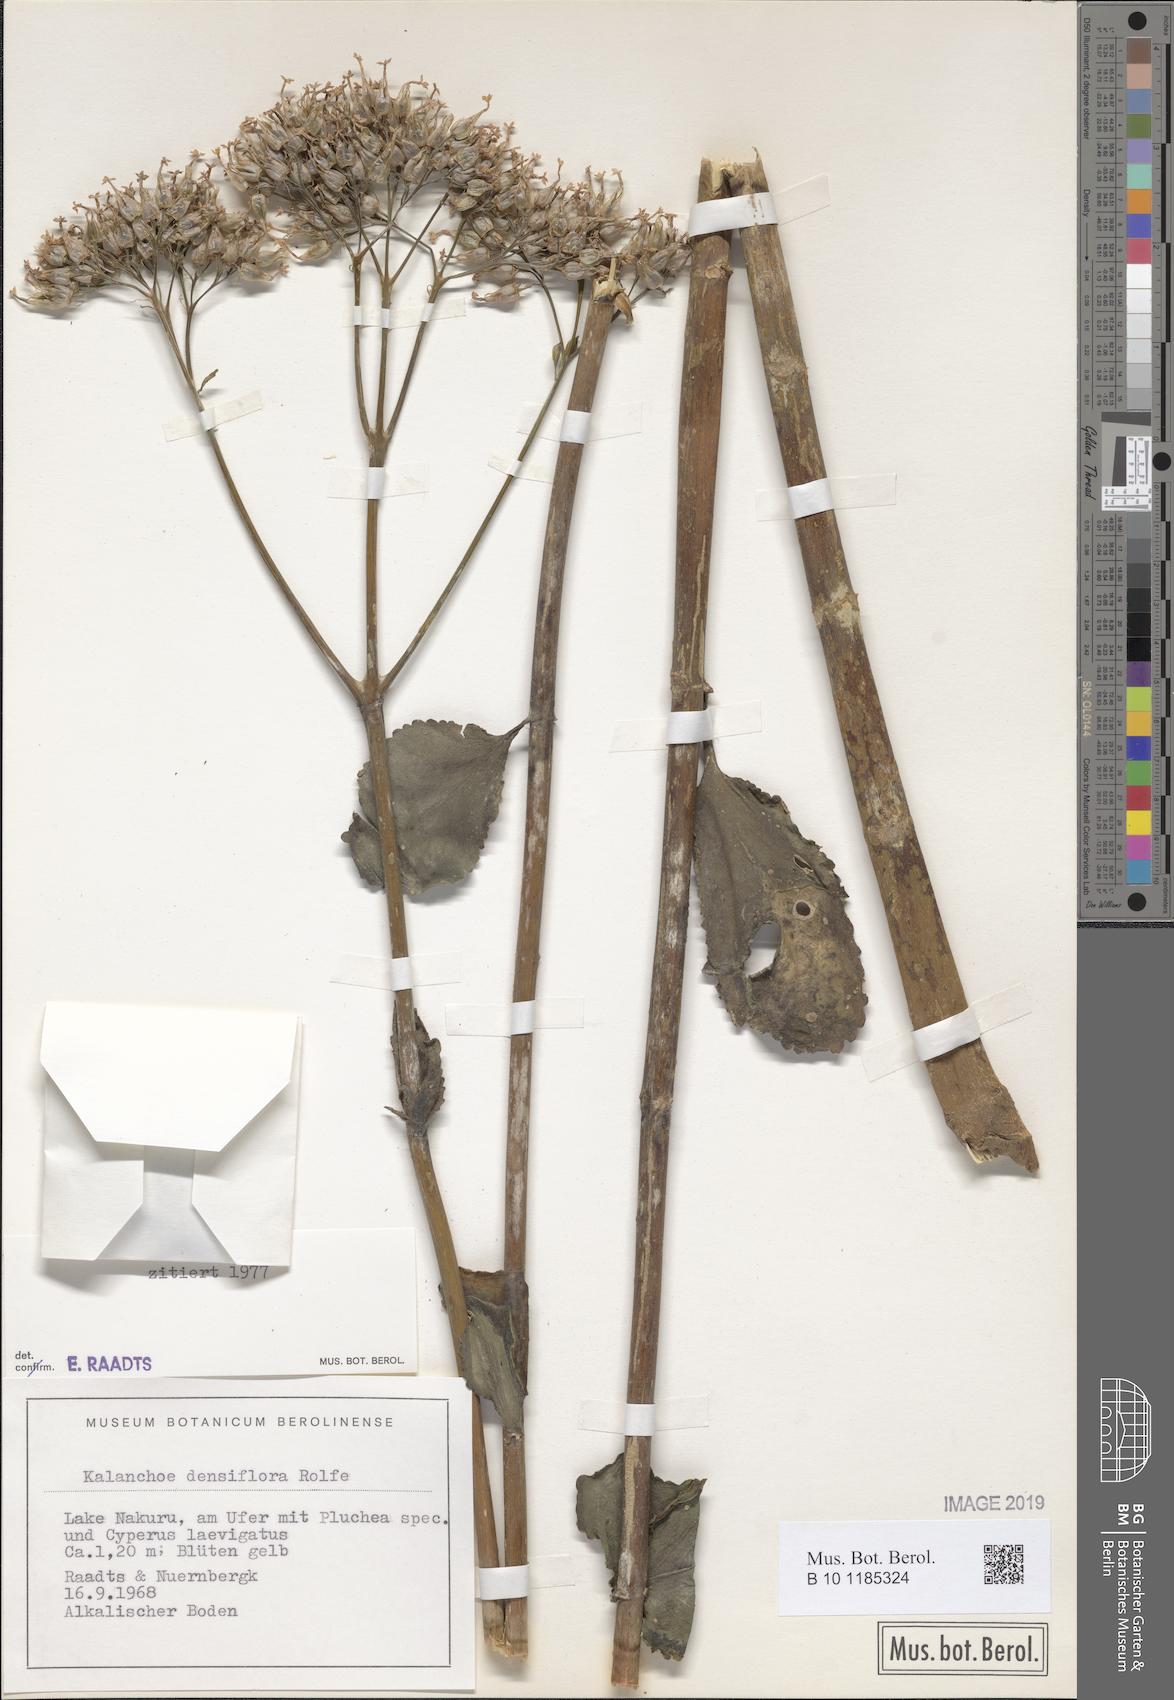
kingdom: Plantae
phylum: Tracheophyta
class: Magnoliopsida
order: Saxifragales
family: Crassulaceae
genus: Kalanchoe
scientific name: Kalanchoe densiflora
